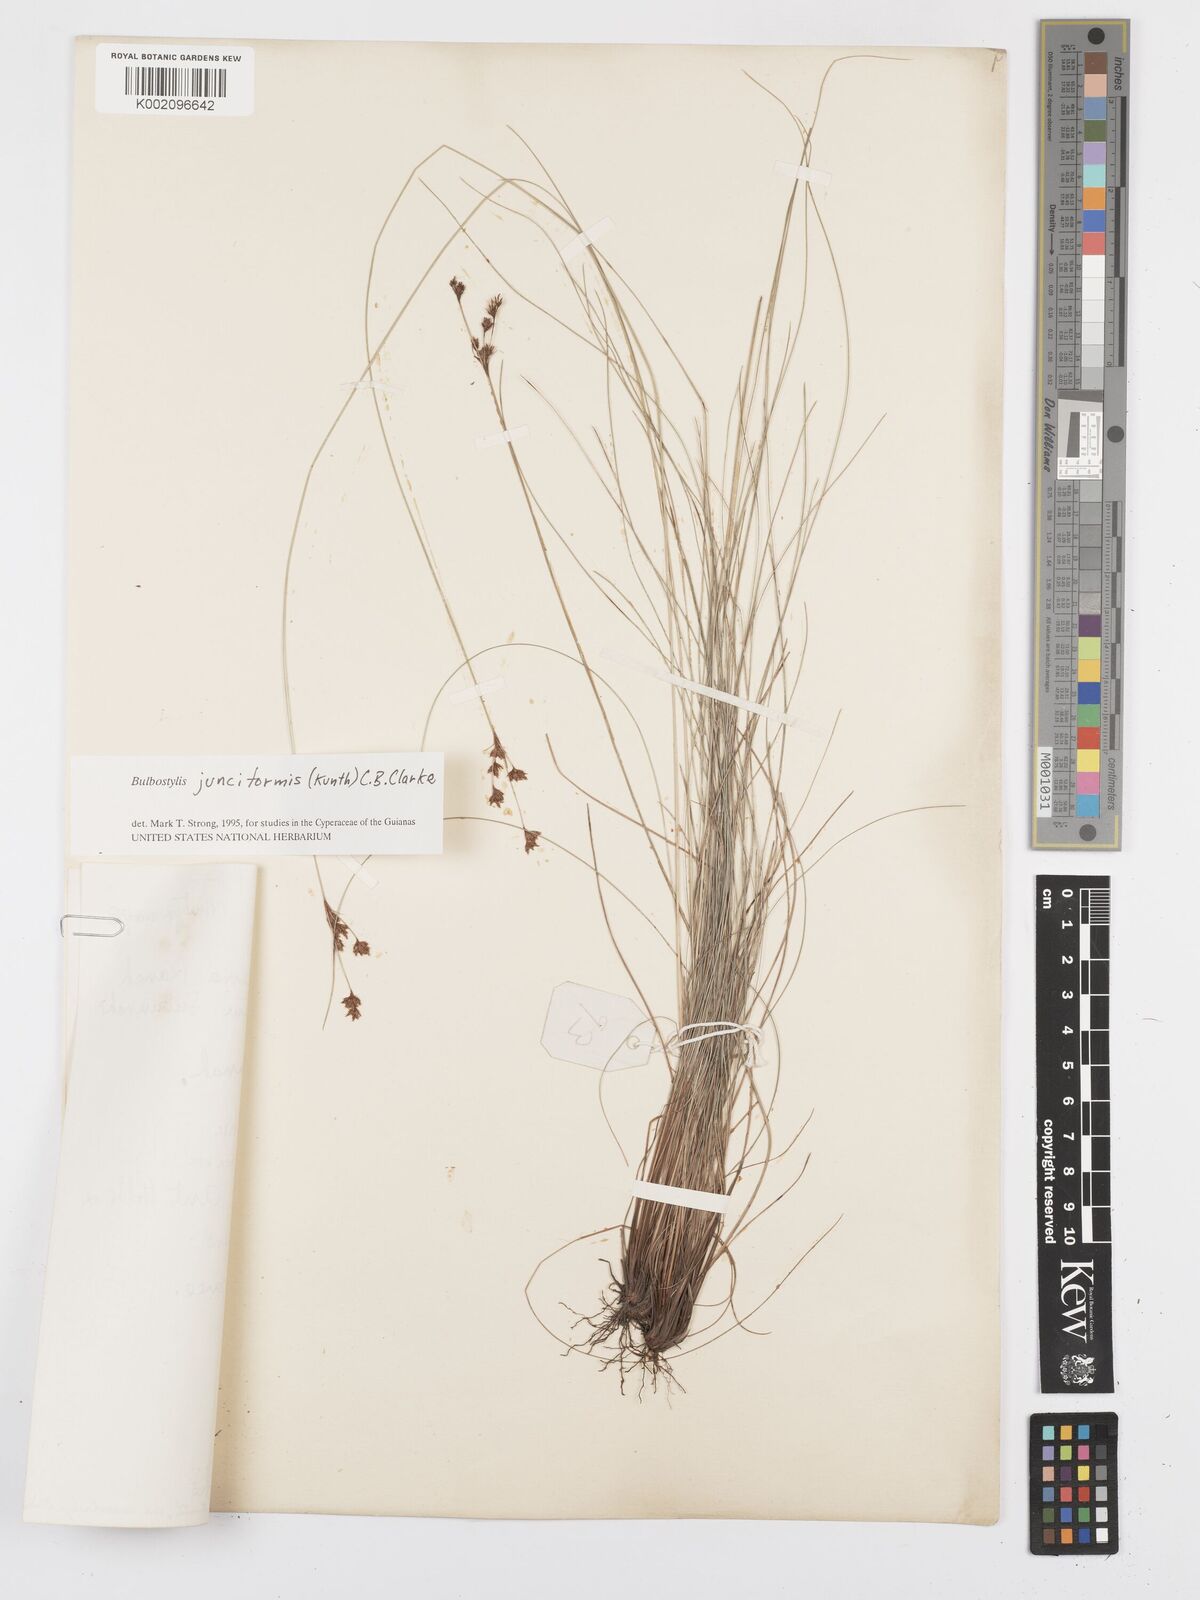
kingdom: Plantae
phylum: Tracheophyta
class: Liliopsida
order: Poales
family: Cyperaceae
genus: Bulbostylis
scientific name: Bulbostylis junciformis
